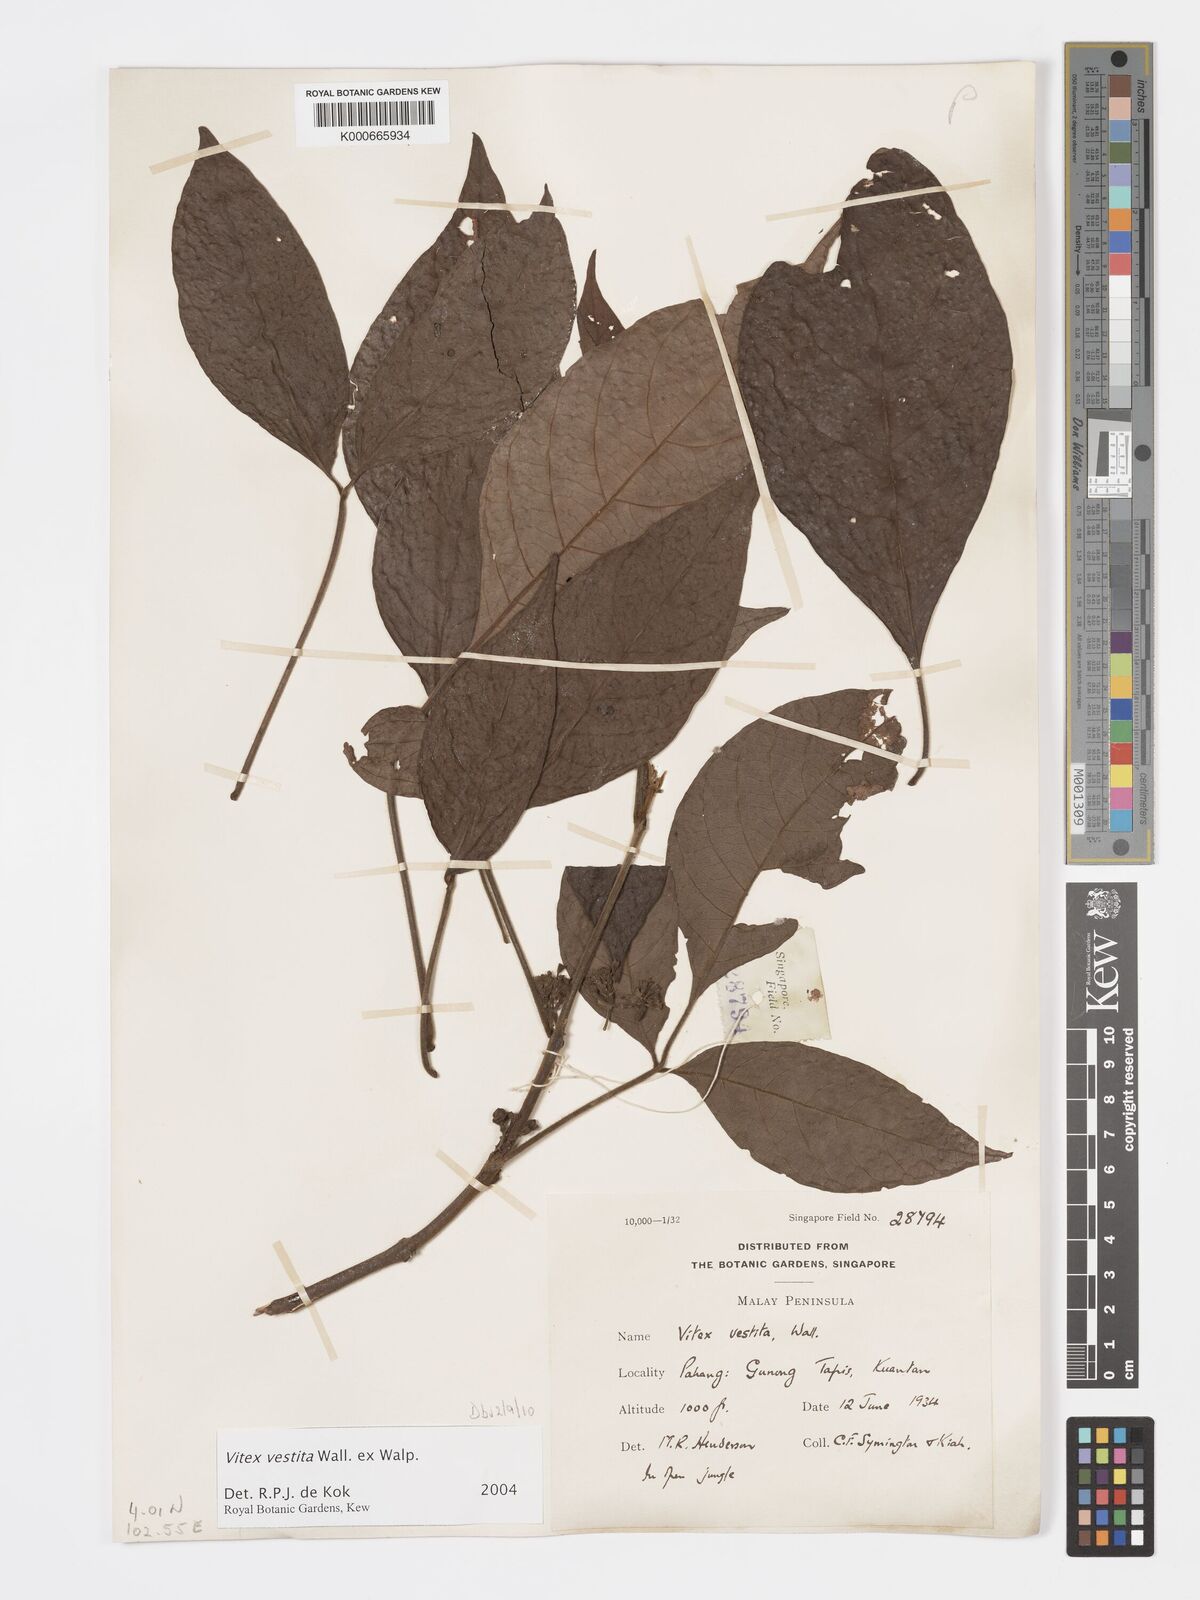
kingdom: Plantae
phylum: Tracheophyta
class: Magnoliopsida
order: Lamiales
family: Lamiaceae
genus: Vitex
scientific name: Vitex vestita
